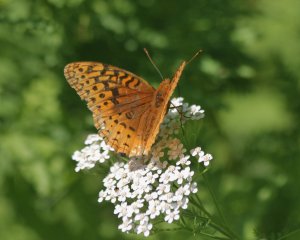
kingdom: Animalia
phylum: Arthropoda
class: Insecta
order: Lepidoptera
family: Nymphalidae
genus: Speyeria
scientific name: Speyeria cybele
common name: Great Spangled Fritillary
